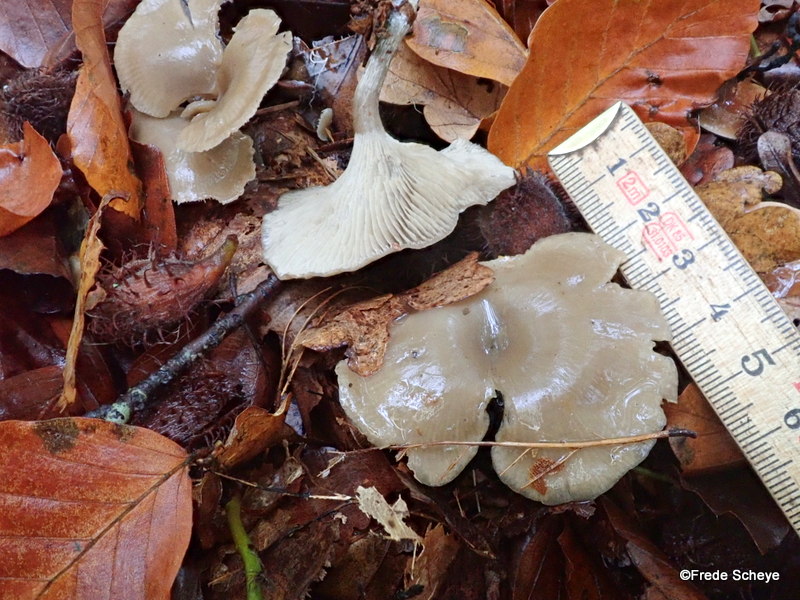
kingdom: Fungi
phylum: Basidiomycota
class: Agaricomycetes
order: Agaricales
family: Tricholomataceae
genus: Clitocybe
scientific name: Clitocybe metachroa
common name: grå tragthat
